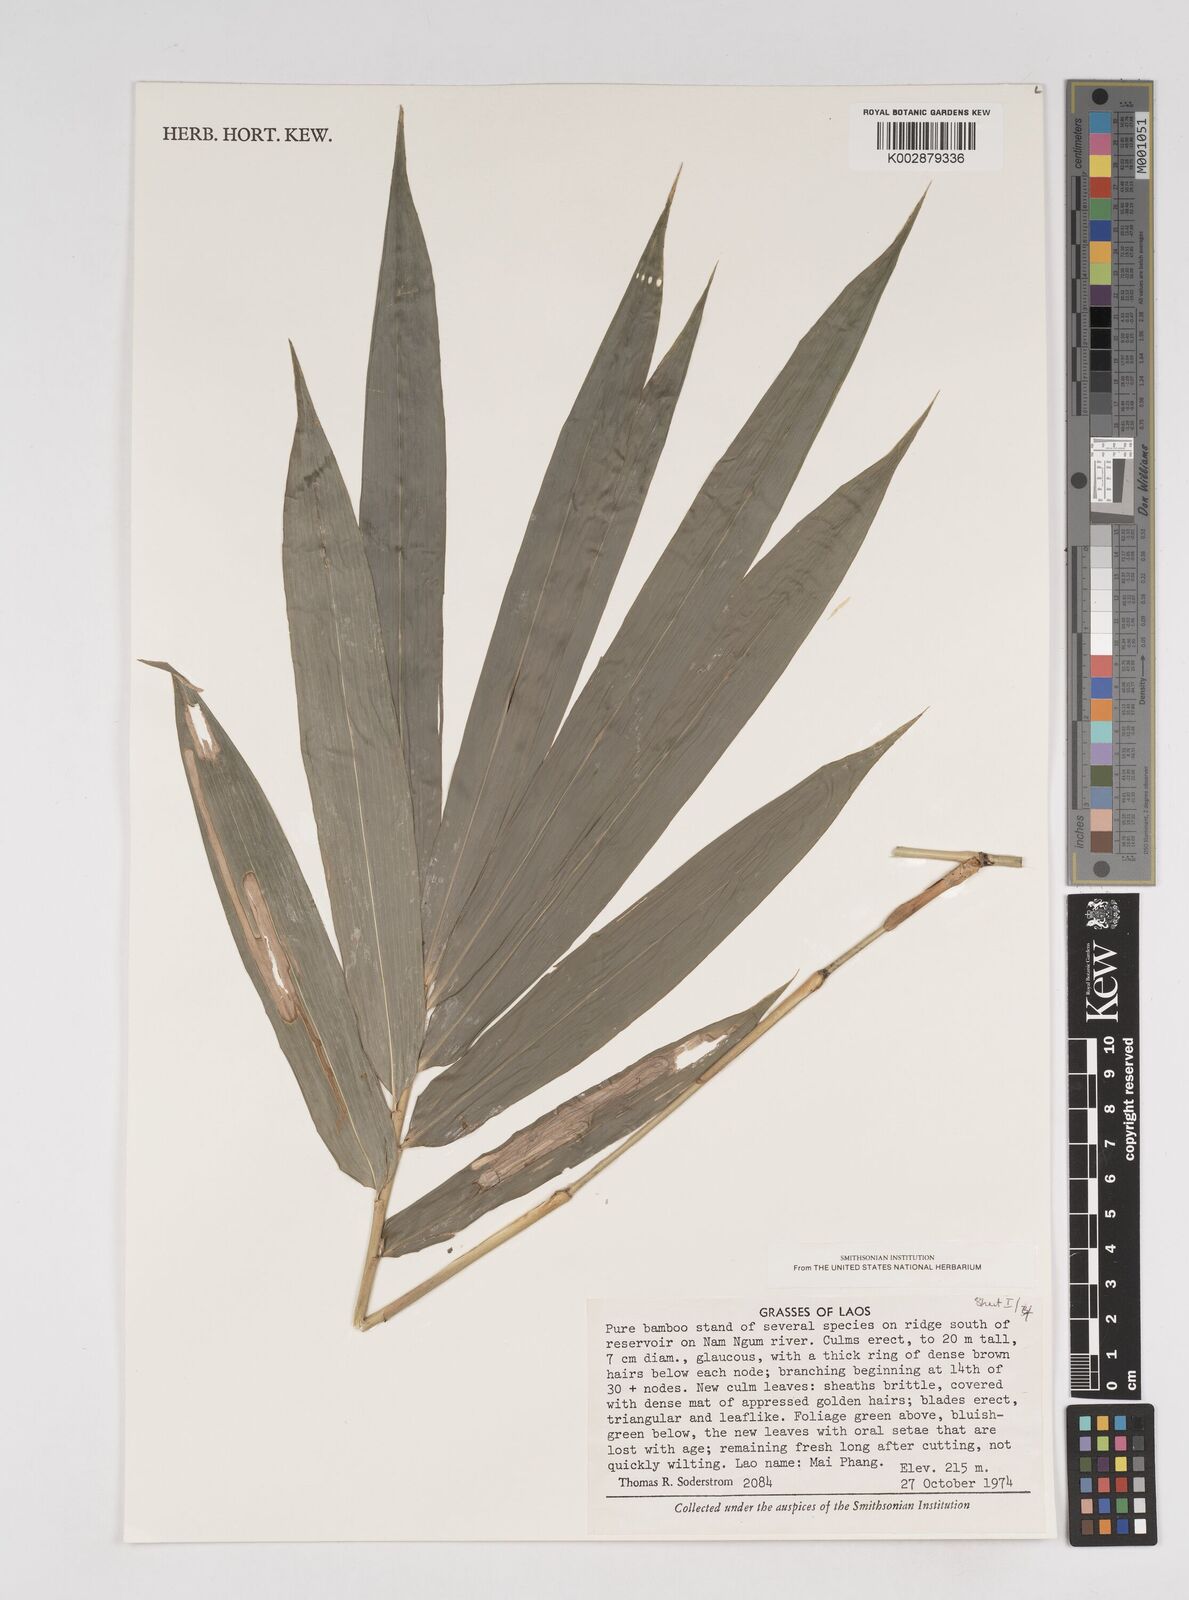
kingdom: Plantae
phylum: Tracheophyta
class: Liliopsida
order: Poales
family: Poaceae
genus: Dendrocalamus
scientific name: Dendrocalamus
